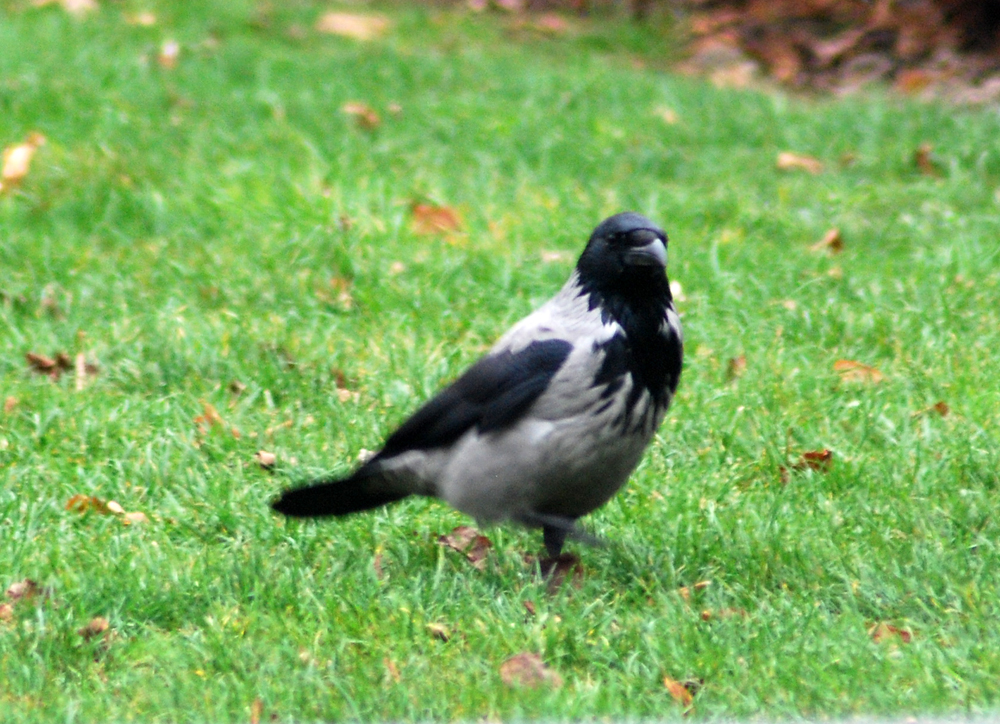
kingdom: Animalia
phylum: Chordata
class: Aves
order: Passeriformes
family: Corvidae
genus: Corvus
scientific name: Corvus cornix
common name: Hooded crow
